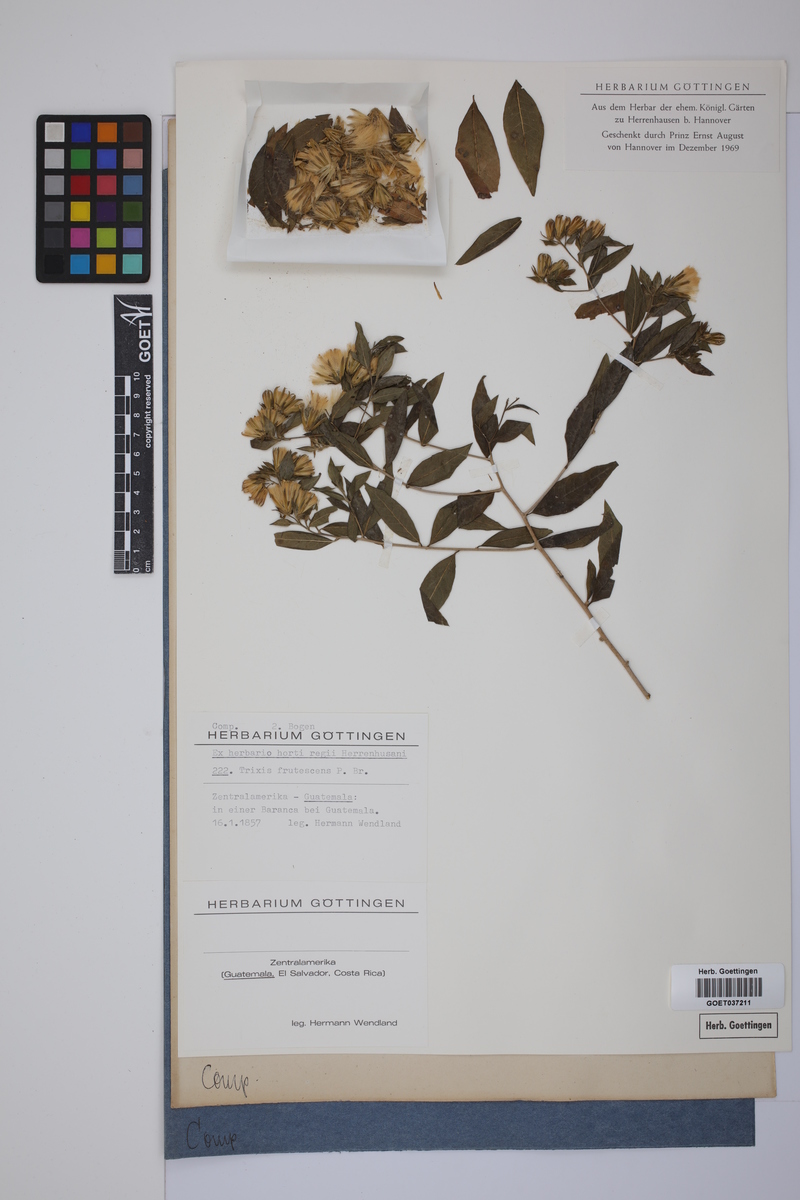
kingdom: Plantae
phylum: Tracheophyta
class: Magnoliopsida
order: Asterales
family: Asteraceae
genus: Trixis
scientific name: Trixis inula
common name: Tropical threefold
